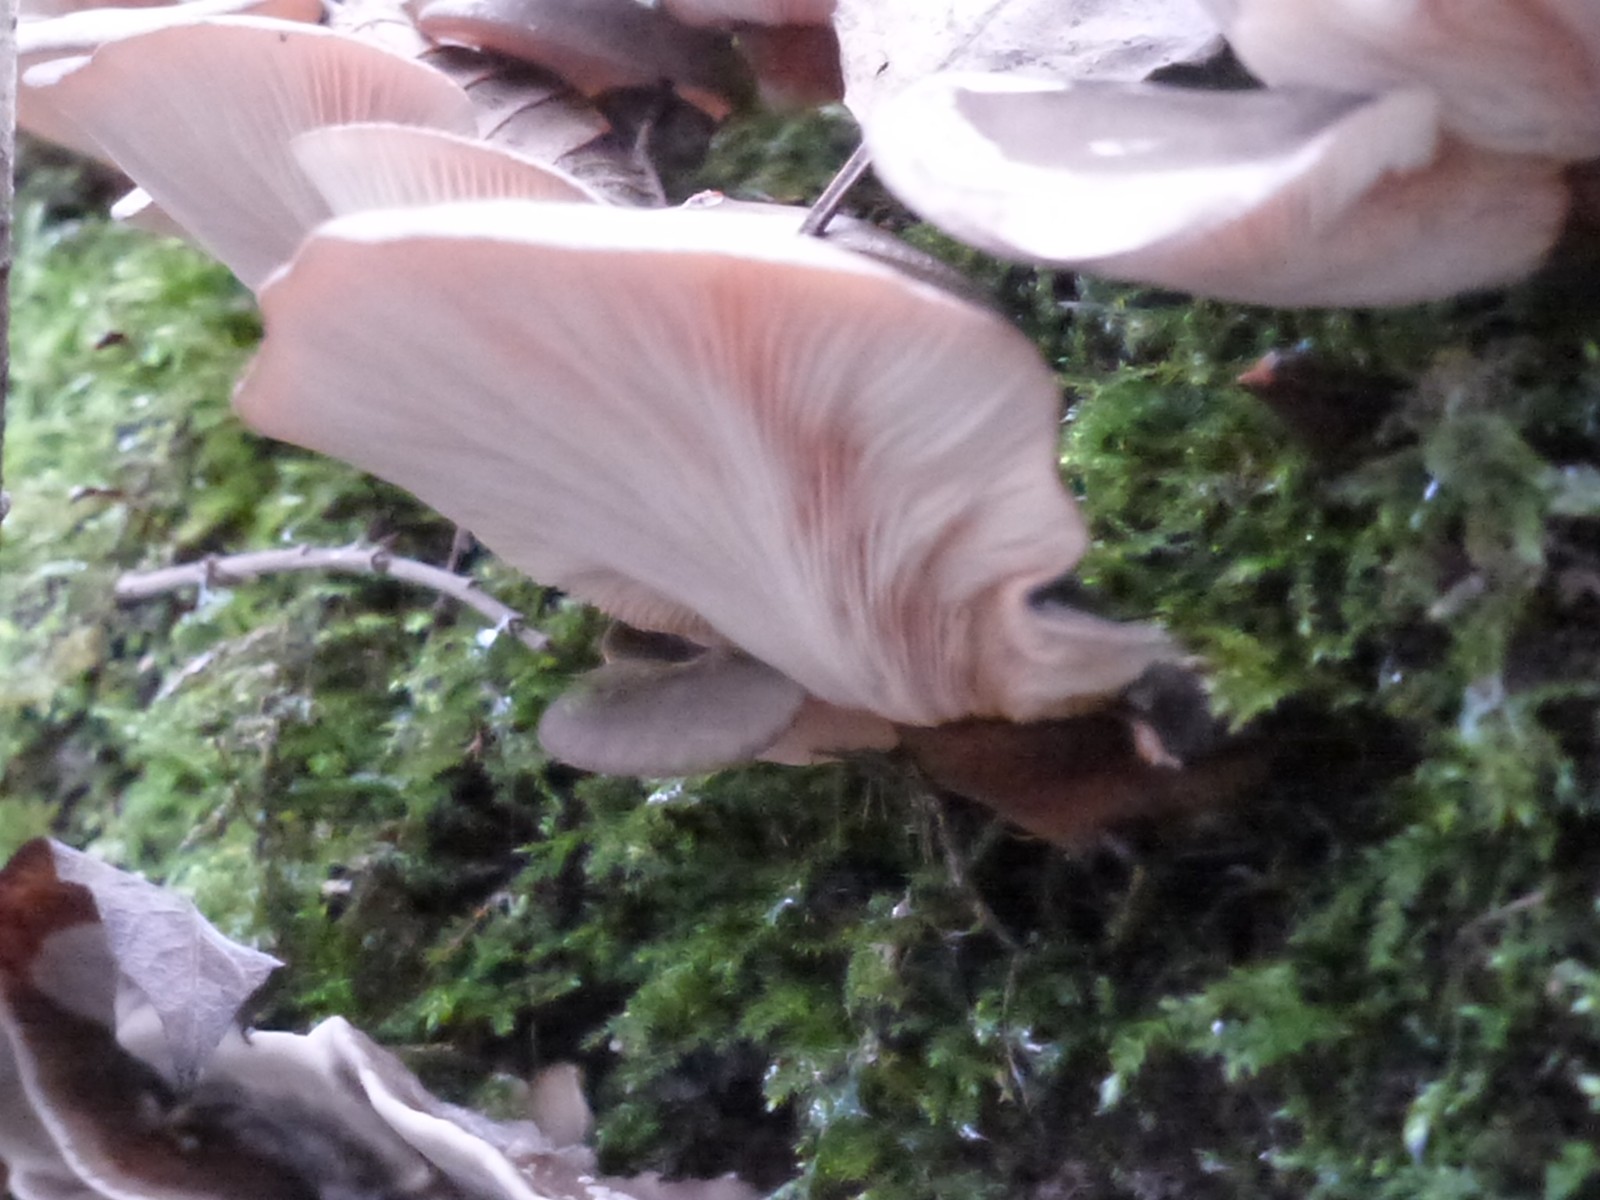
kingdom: Fungi
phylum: Basidiomycota
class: Agaricomycetes
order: Agaricales
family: Sarcomyxaceae
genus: Sarcomyxa
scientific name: Sarcomyxa serotina
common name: gummihat
